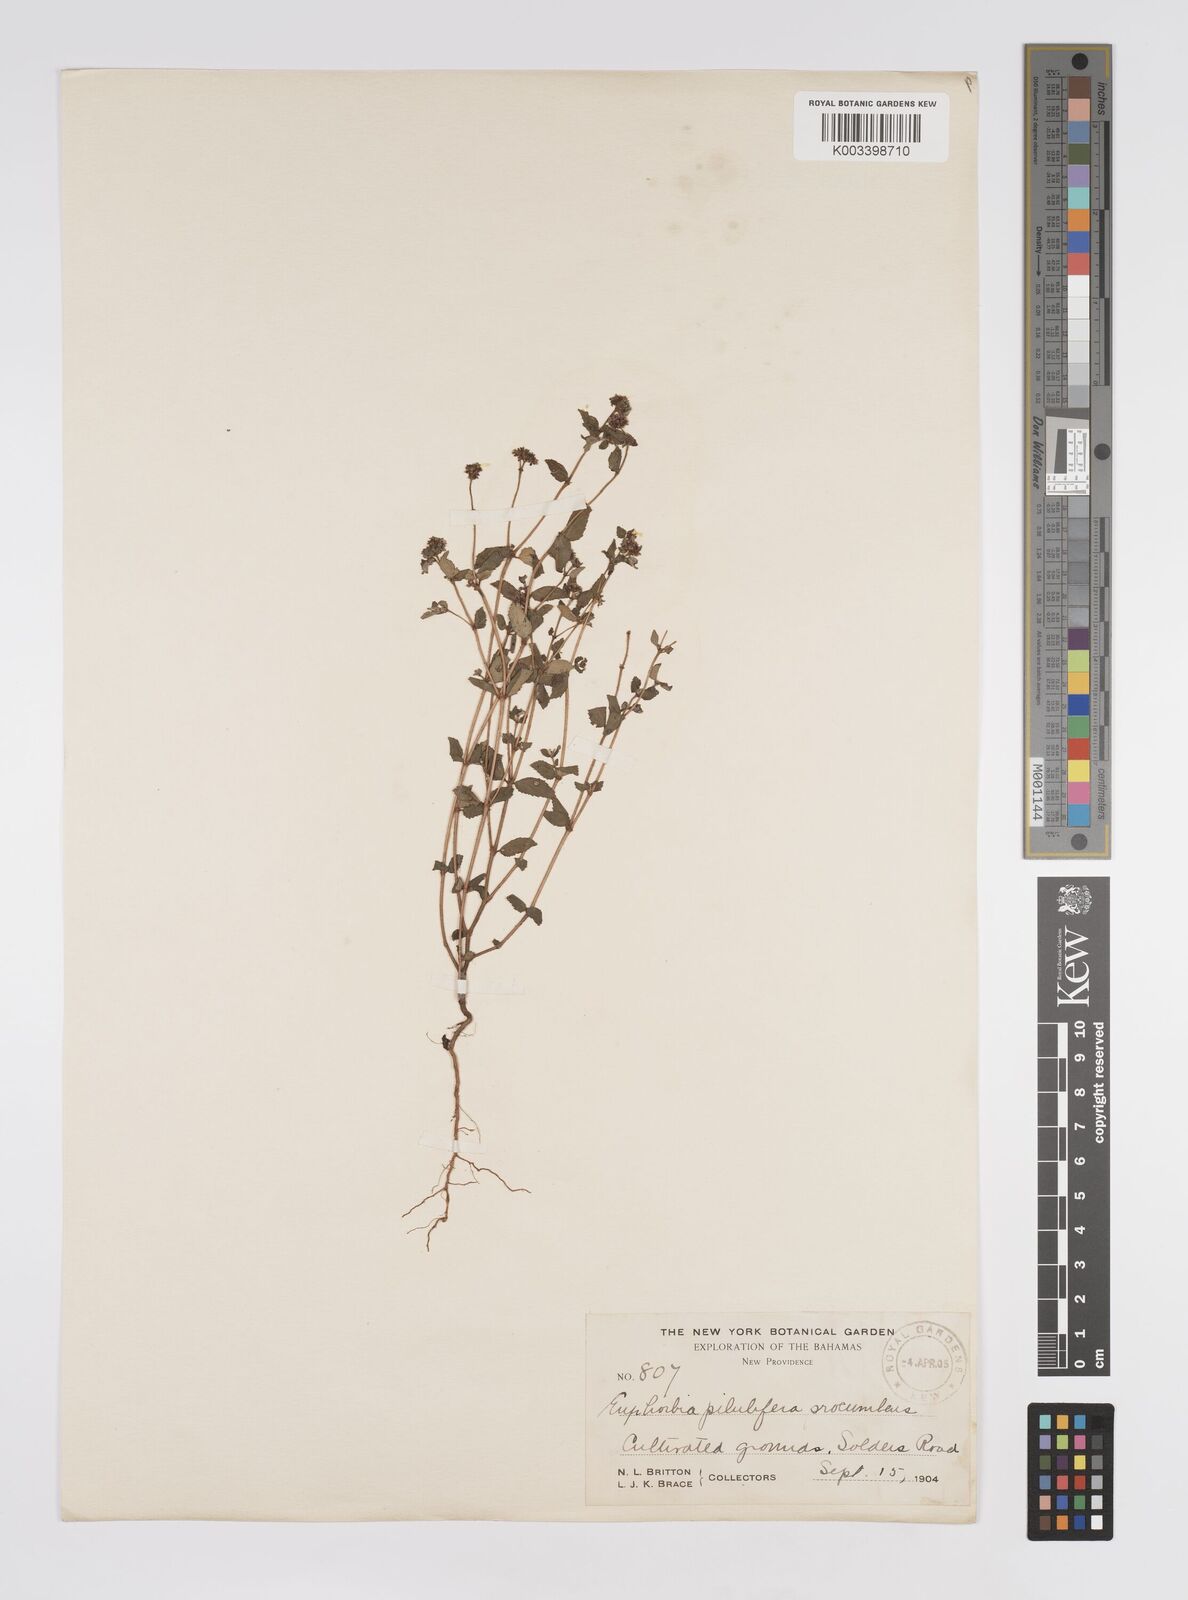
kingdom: Plantae
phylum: Tracheophyta
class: Magnoliopsida
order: Malpighiales
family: Euphorbiaceae
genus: Euphorbia
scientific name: Euphorbia hirta
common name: Pillpod sandmat
